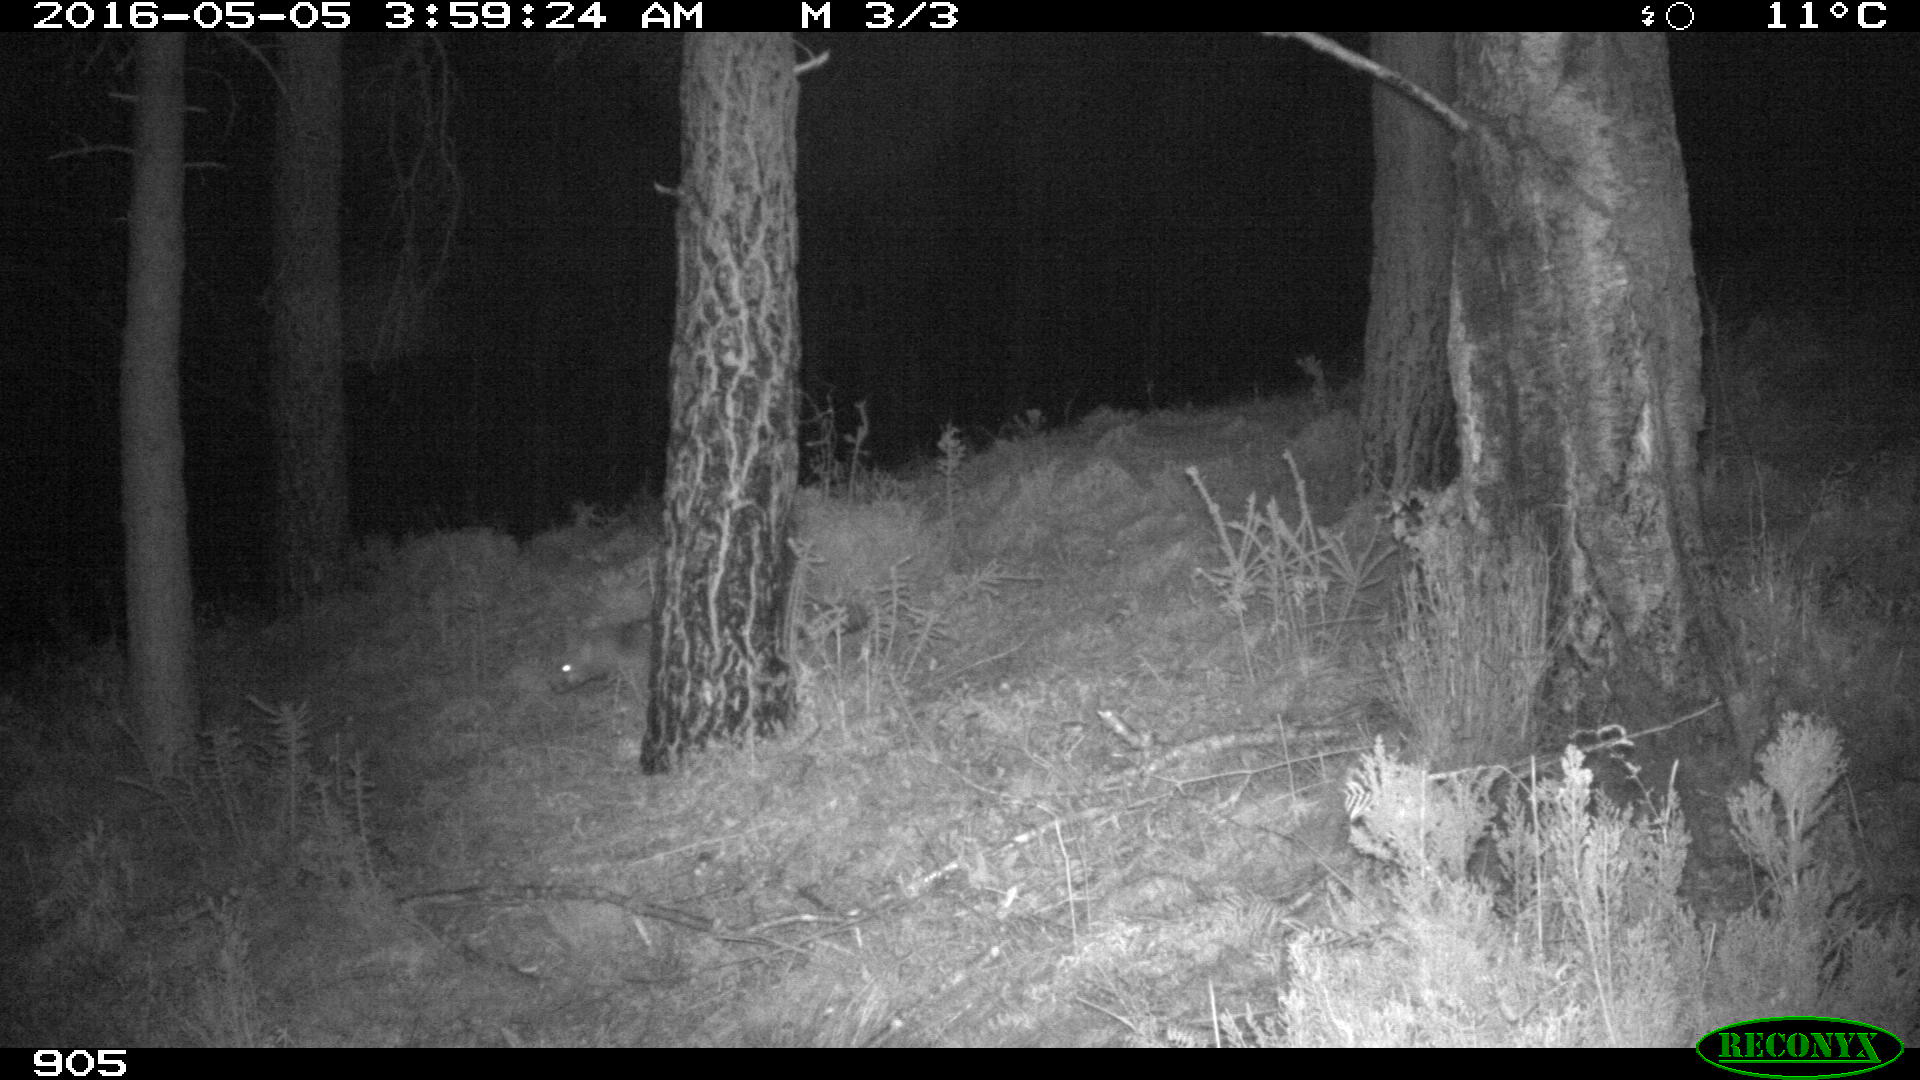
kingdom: Animalia
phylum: Chordata
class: Mammalia
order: Carnivora
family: Canidae
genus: Vulpes
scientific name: Vulpes vulpes
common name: Red fox
